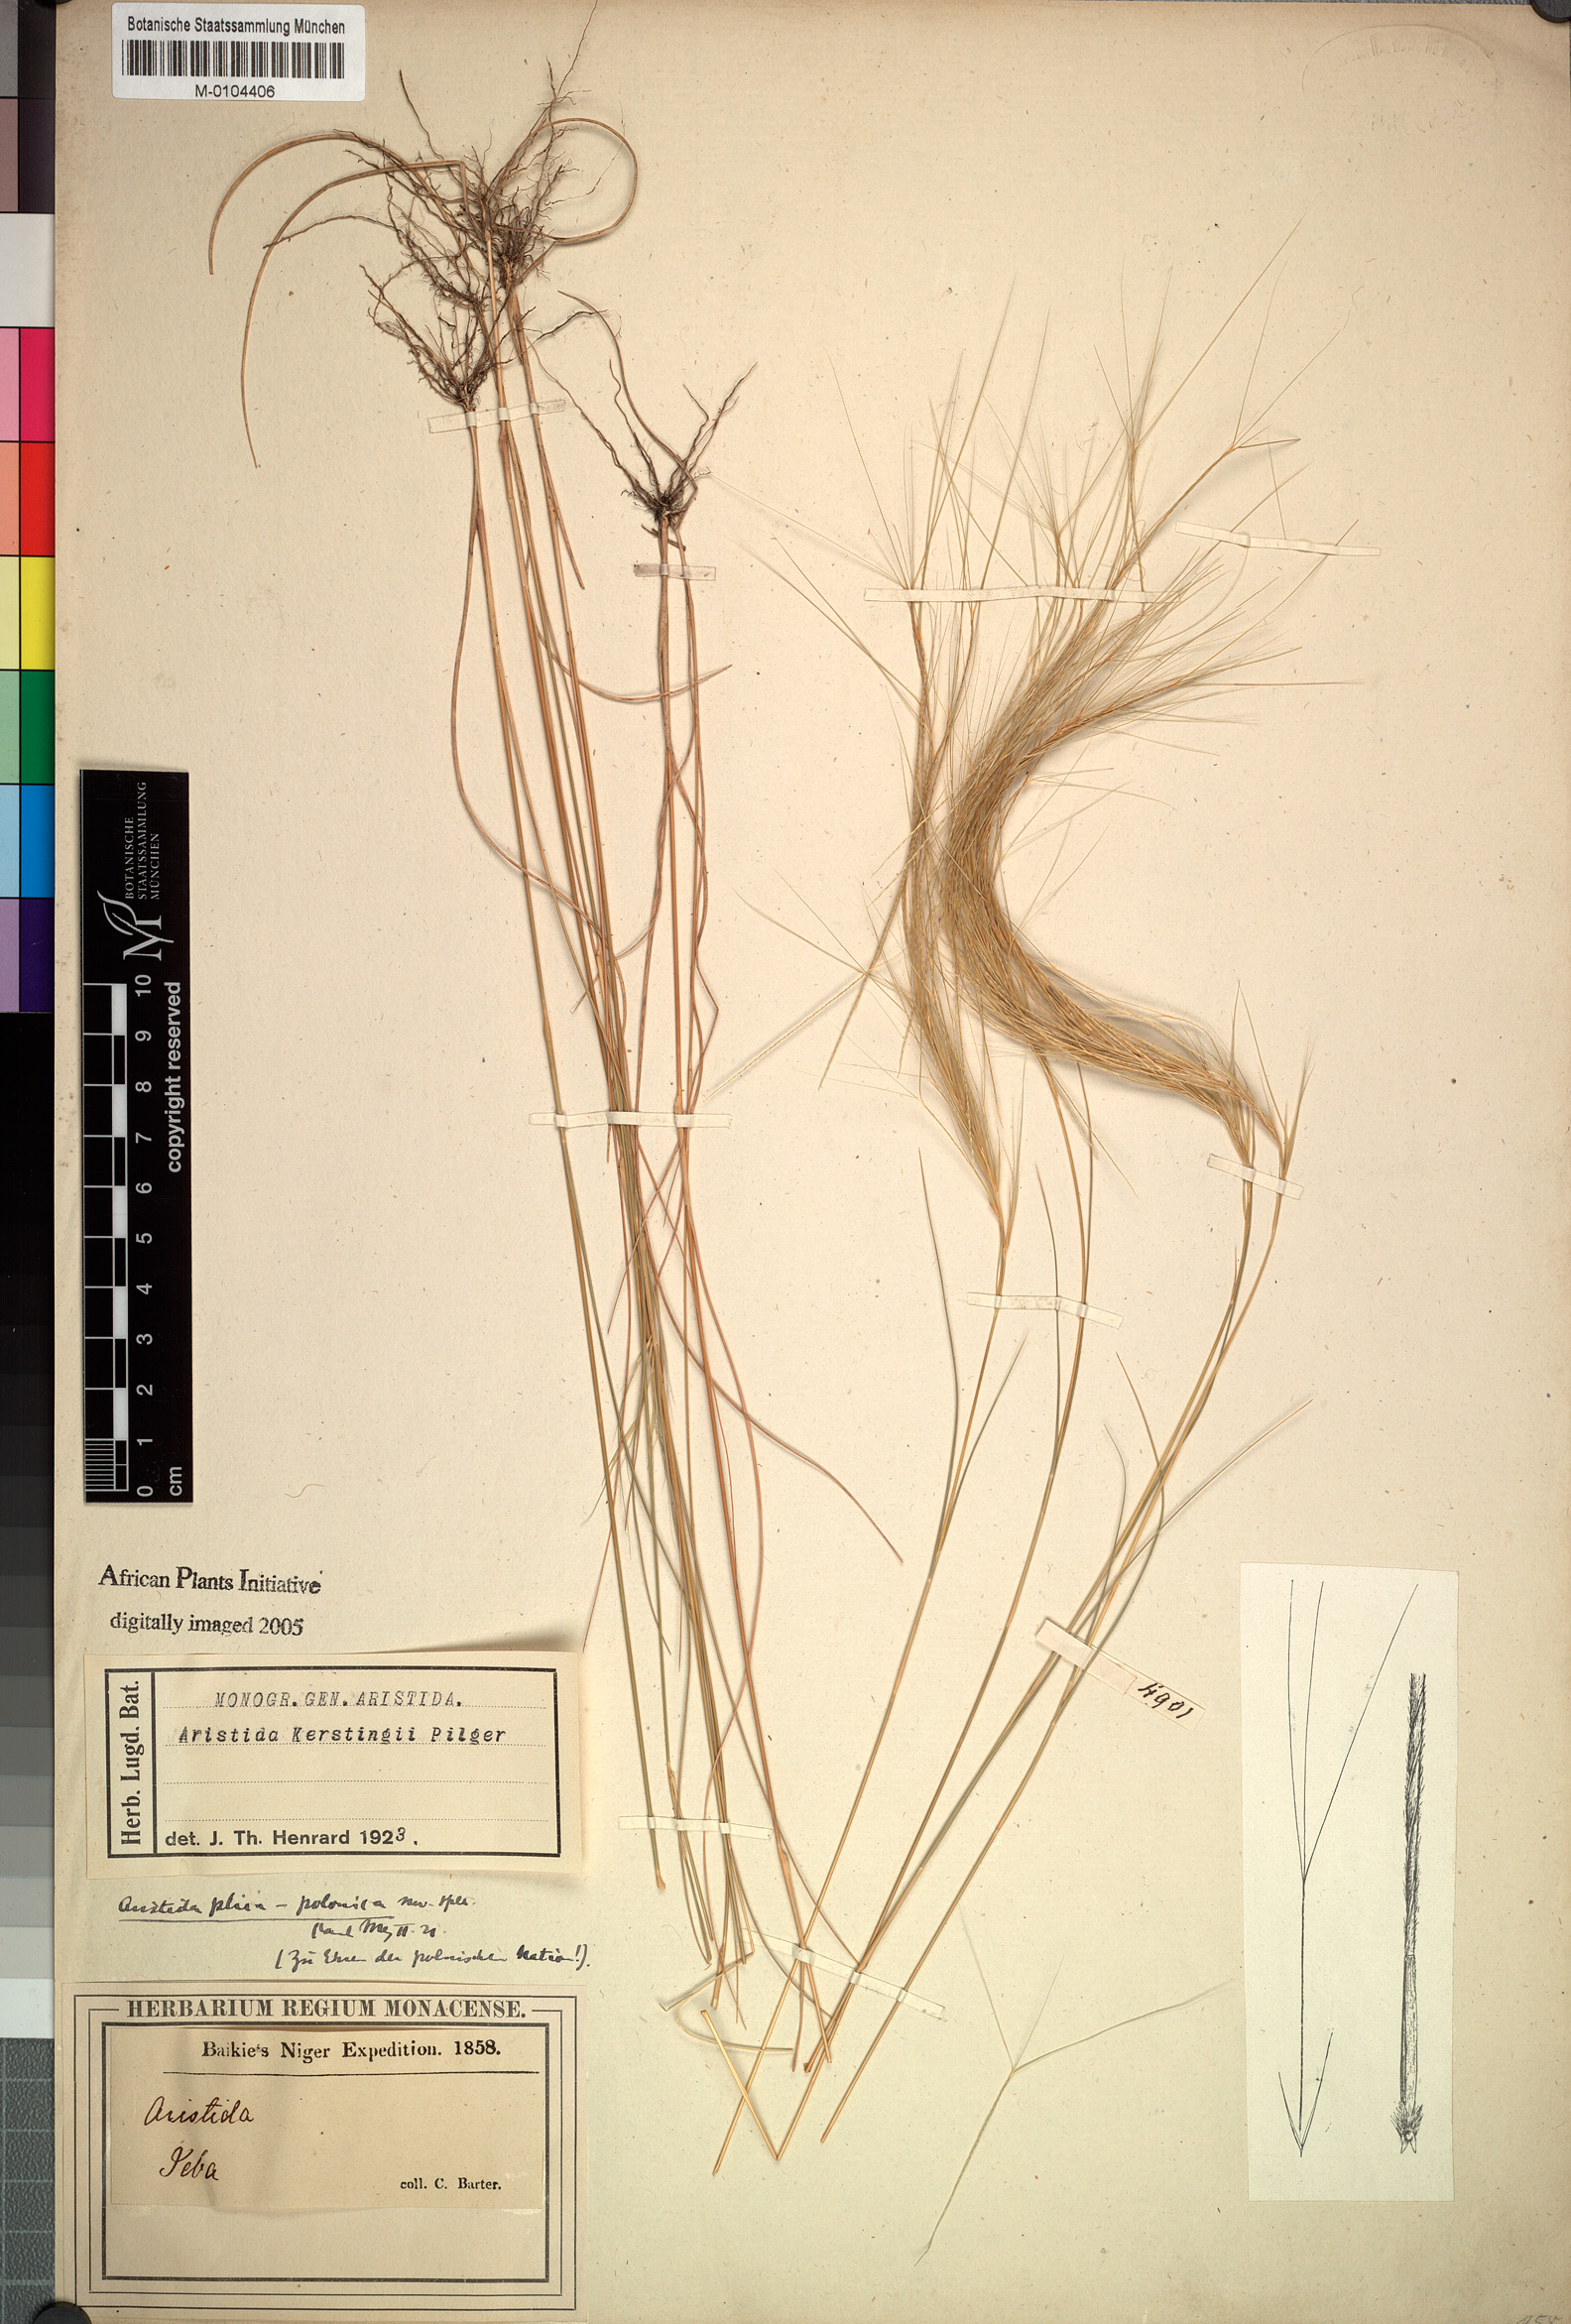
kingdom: Plantae
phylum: Tracheophyta
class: Liliopsida
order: Poales
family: Poaceae
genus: Aristida
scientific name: Aristida kerstingii
